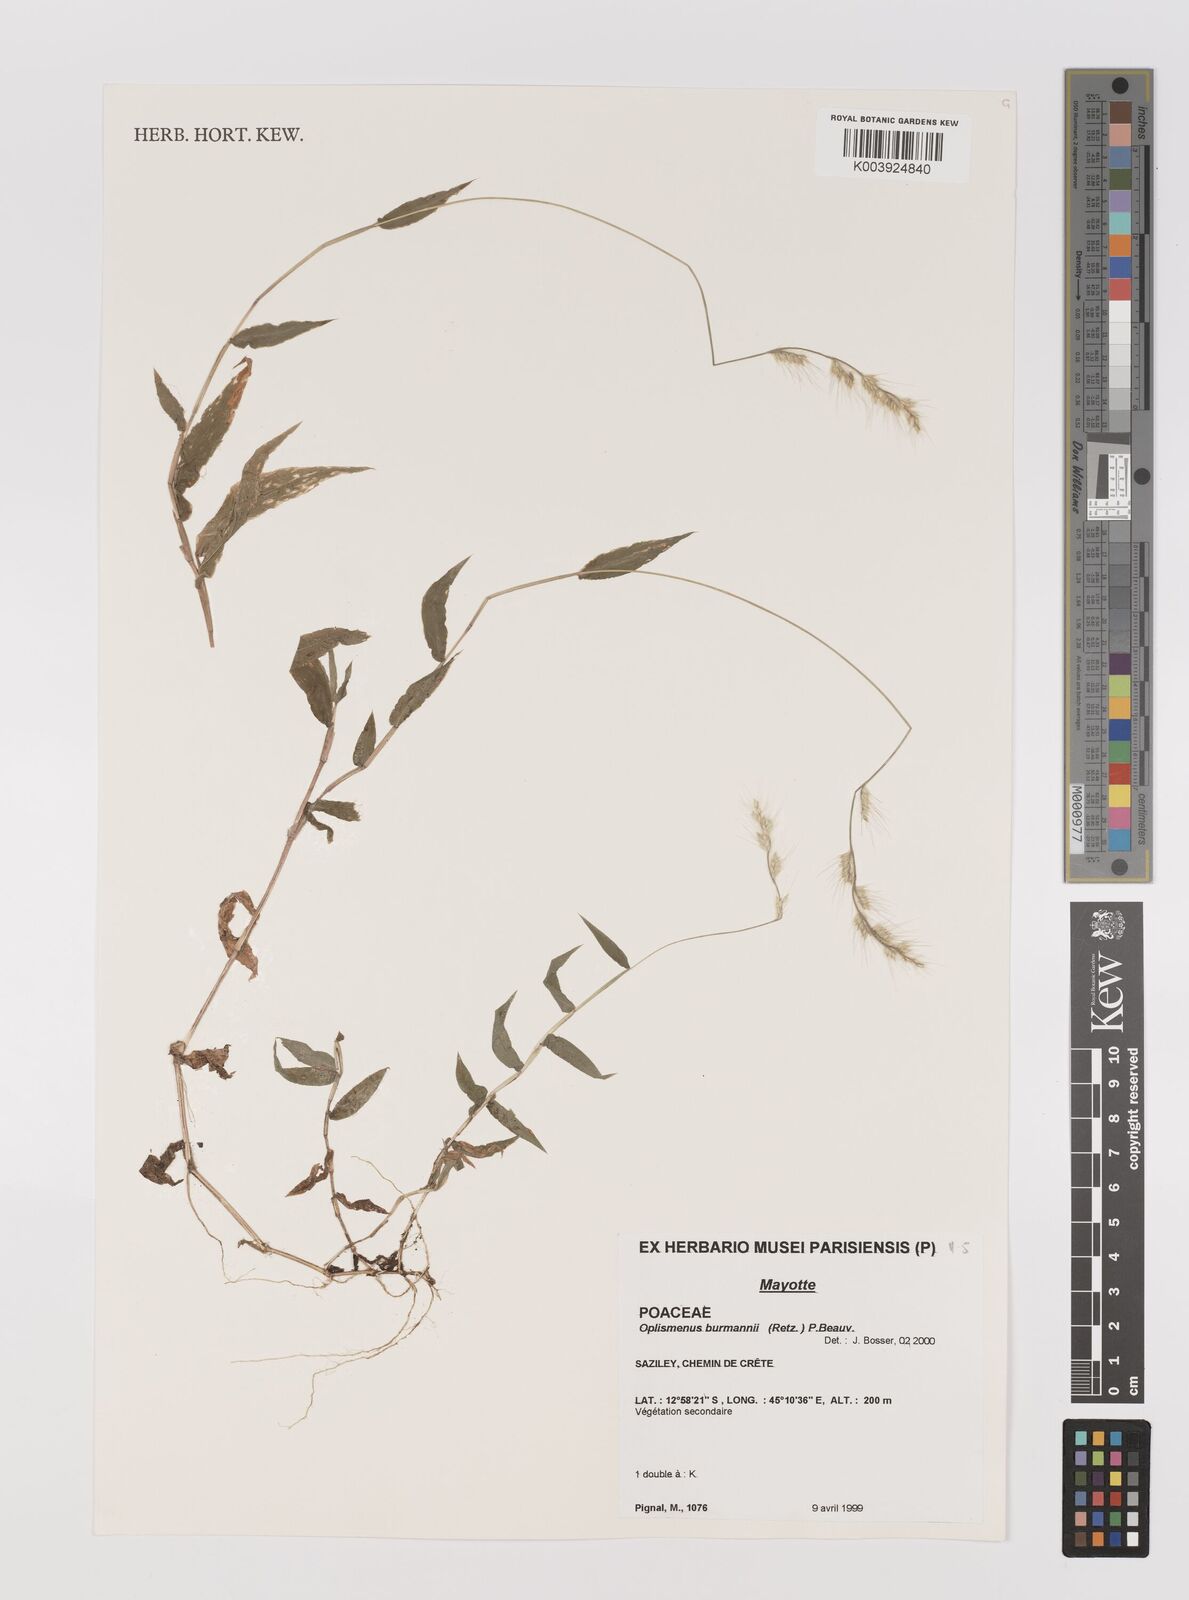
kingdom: Plantae
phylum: Tracheophyta
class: Liliopsida
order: Poales
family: Poaceae
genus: Oplismenus
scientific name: Oplismenus burmanni
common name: Burmann's basketgrass
